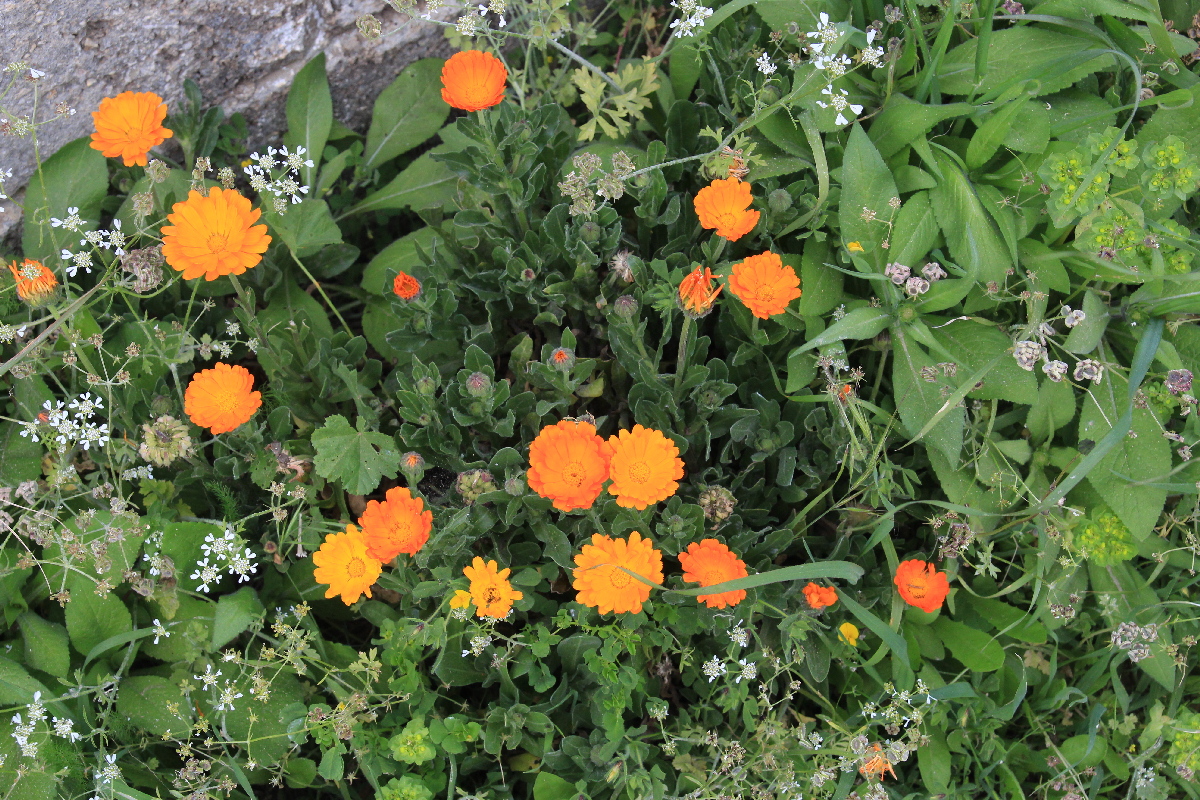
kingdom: Plantae
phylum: Tracheophyta
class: Magnoliopsida
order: Caryophyllales
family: Caryophyllaceae
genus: Stellaria
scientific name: Stellaria cupaniana
